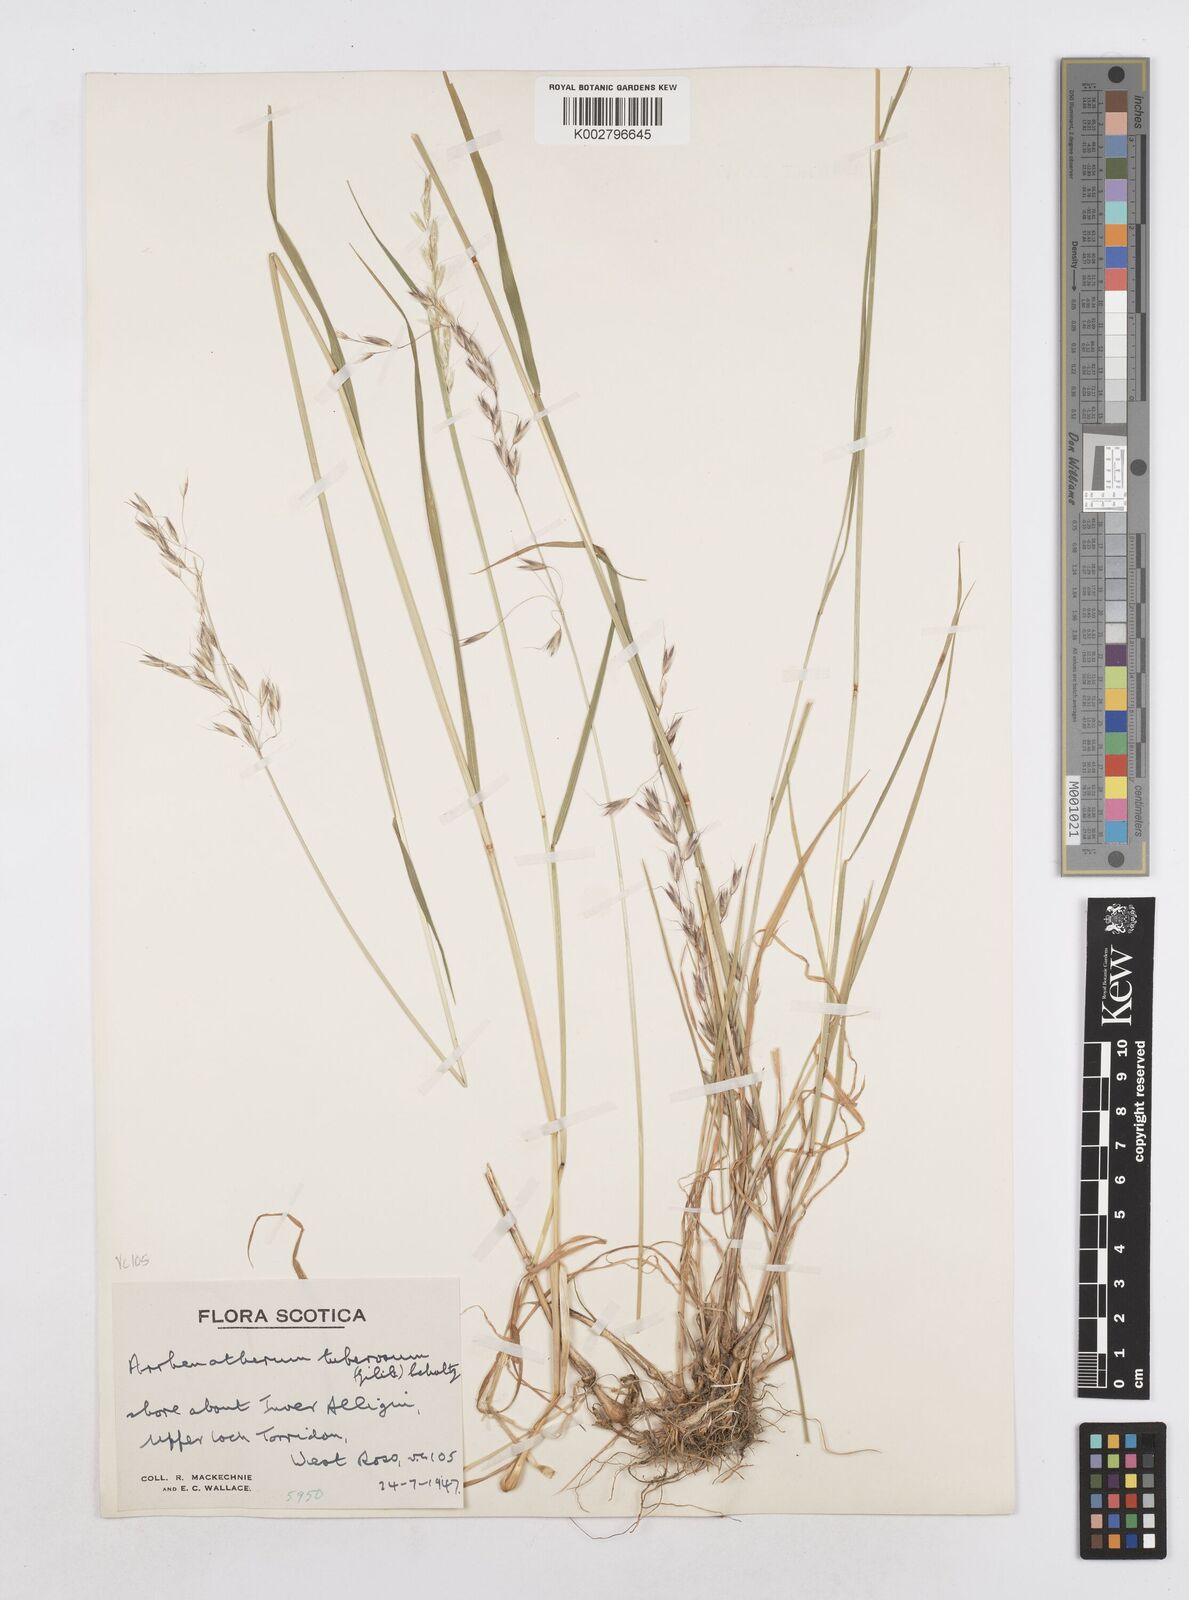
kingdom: Plantae
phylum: Tracheophyta
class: Liliopsida
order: Poales
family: Poaceae
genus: Arrhenatherum
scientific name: Arrhenatherum elatius
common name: Tall oatgrass
